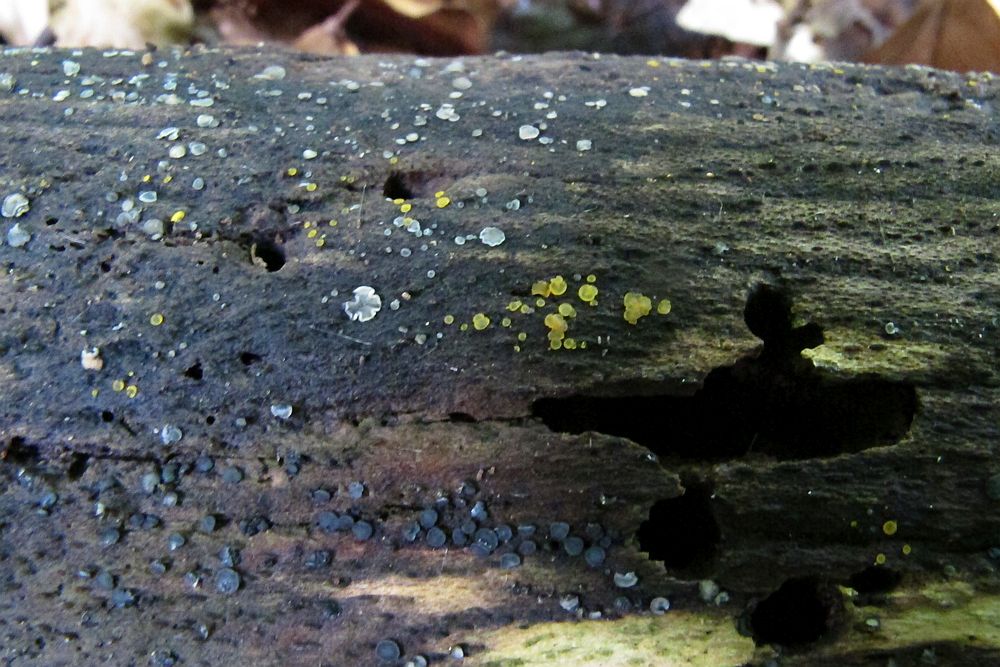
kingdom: Fungi
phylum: Ascomycota
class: Orbiliomycetes
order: Orbiliales
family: Orbiliaceae
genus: Orbilia
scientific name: Orbilia xanthostigma
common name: krumsporet voksskive
